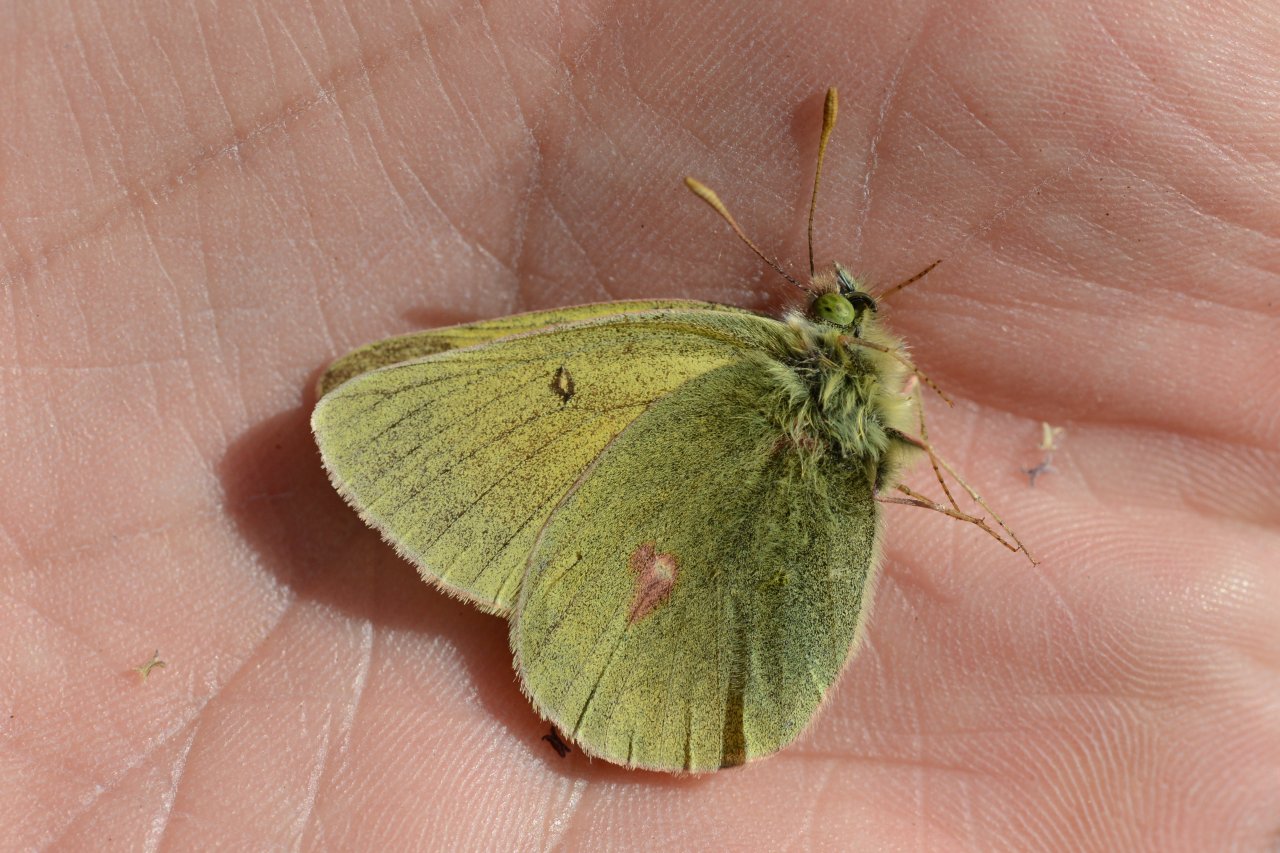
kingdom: Animalia
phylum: Arthropoda
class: Insecta
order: Lepidoptera
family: Pieridae
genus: Colias
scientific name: Colias hecla
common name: Hecla Sulphur
